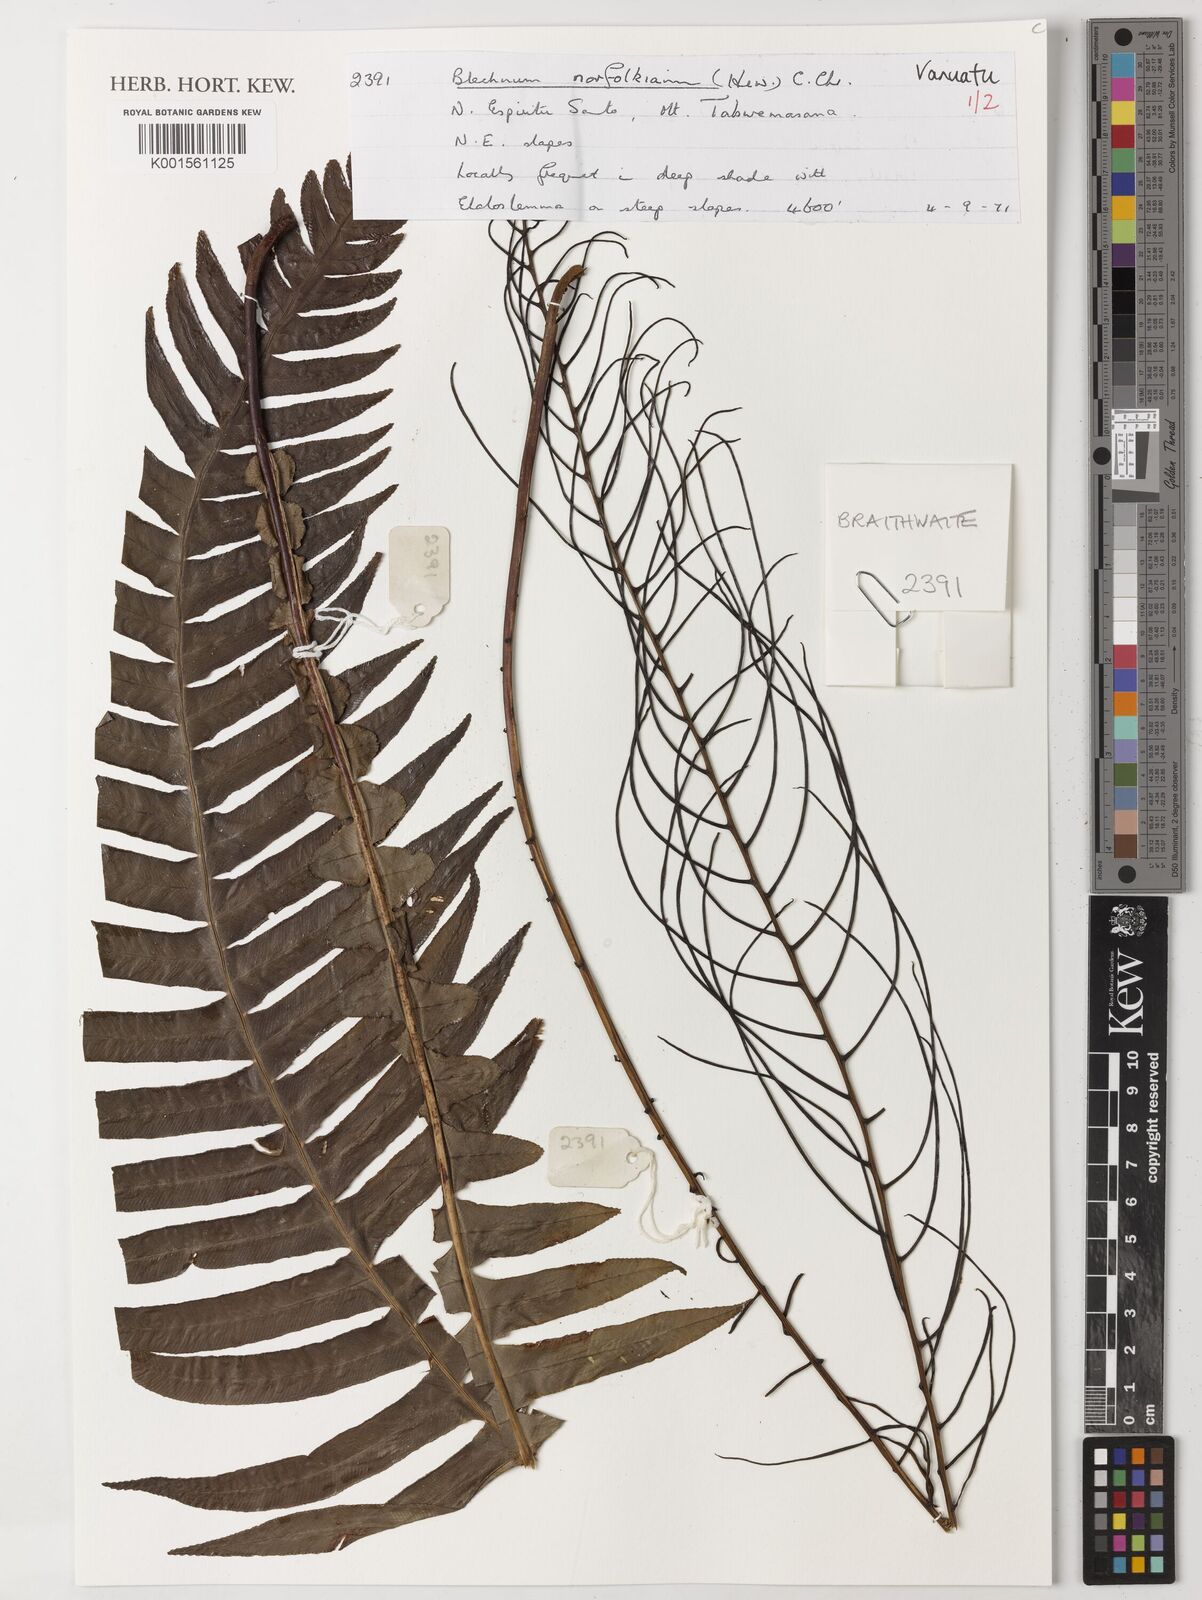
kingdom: Plantae
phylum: Tracheophyta
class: Polypodiopsida
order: Polypodiales
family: Blechnaceae
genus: Austroblechnum
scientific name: Austroblechnum norfolkianum
